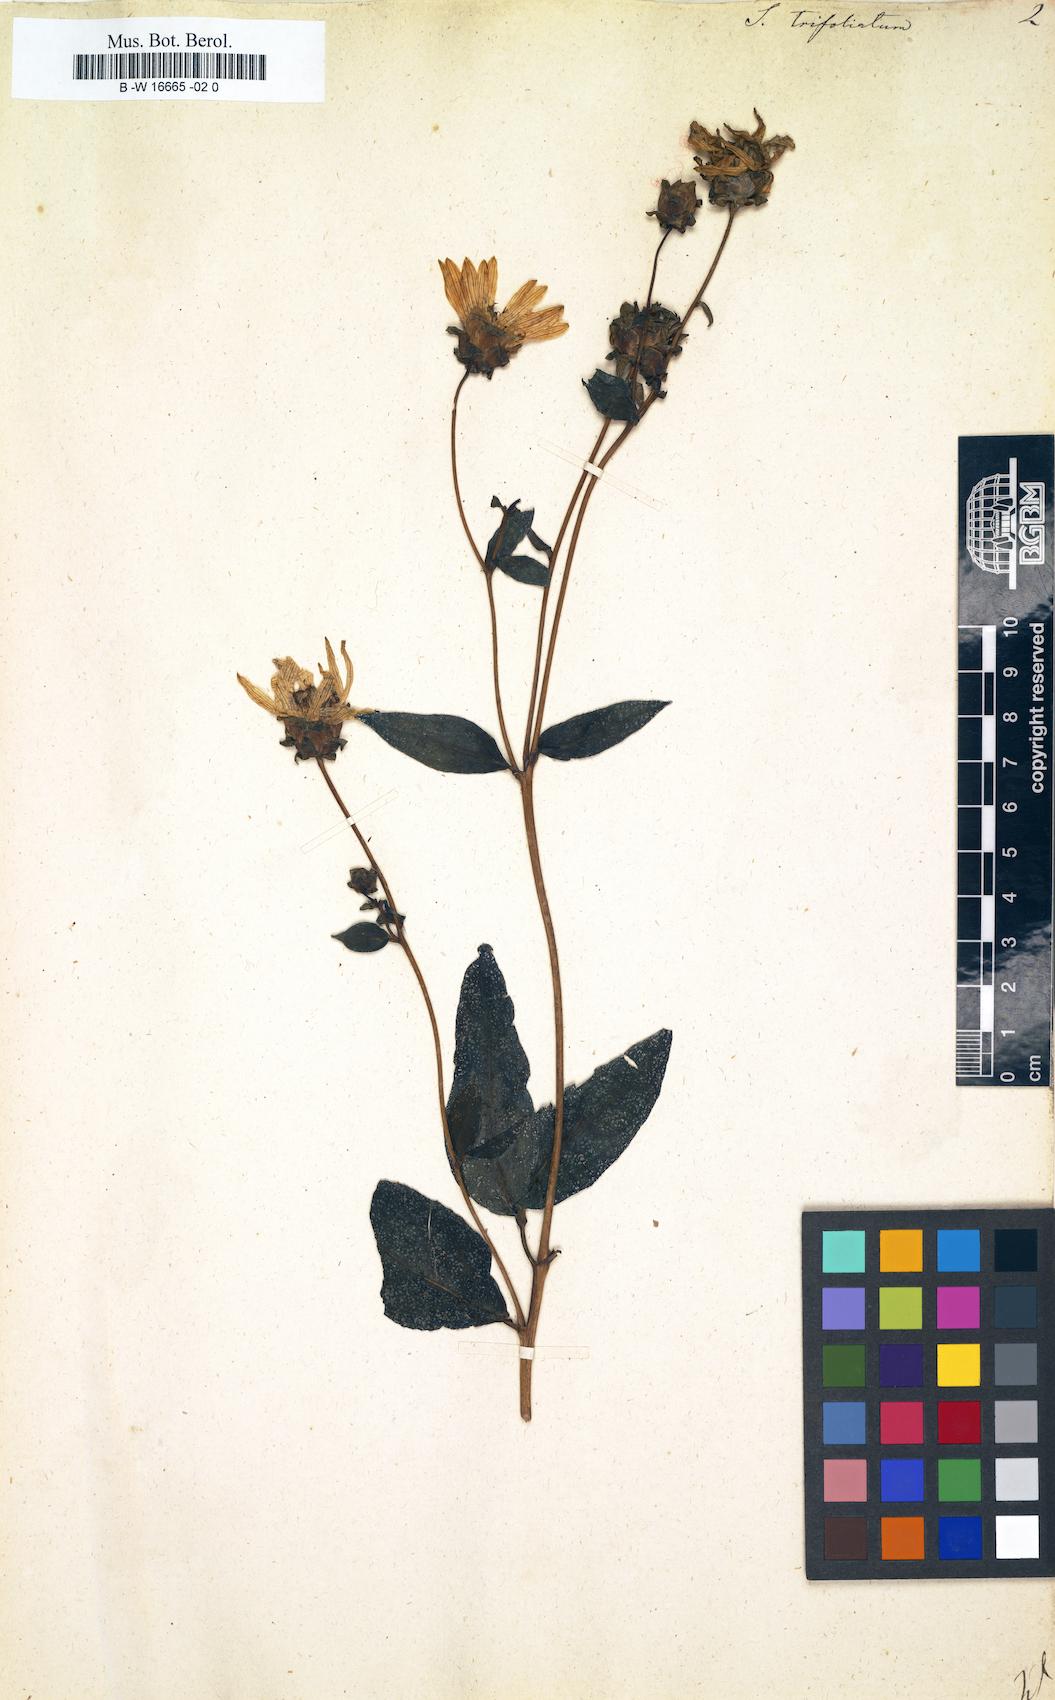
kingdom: Plantae
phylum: Tracheophyta
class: Magnoliopsida
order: Asterales
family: Asteraceae
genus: Silphium
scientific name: Silphium asteriscus
